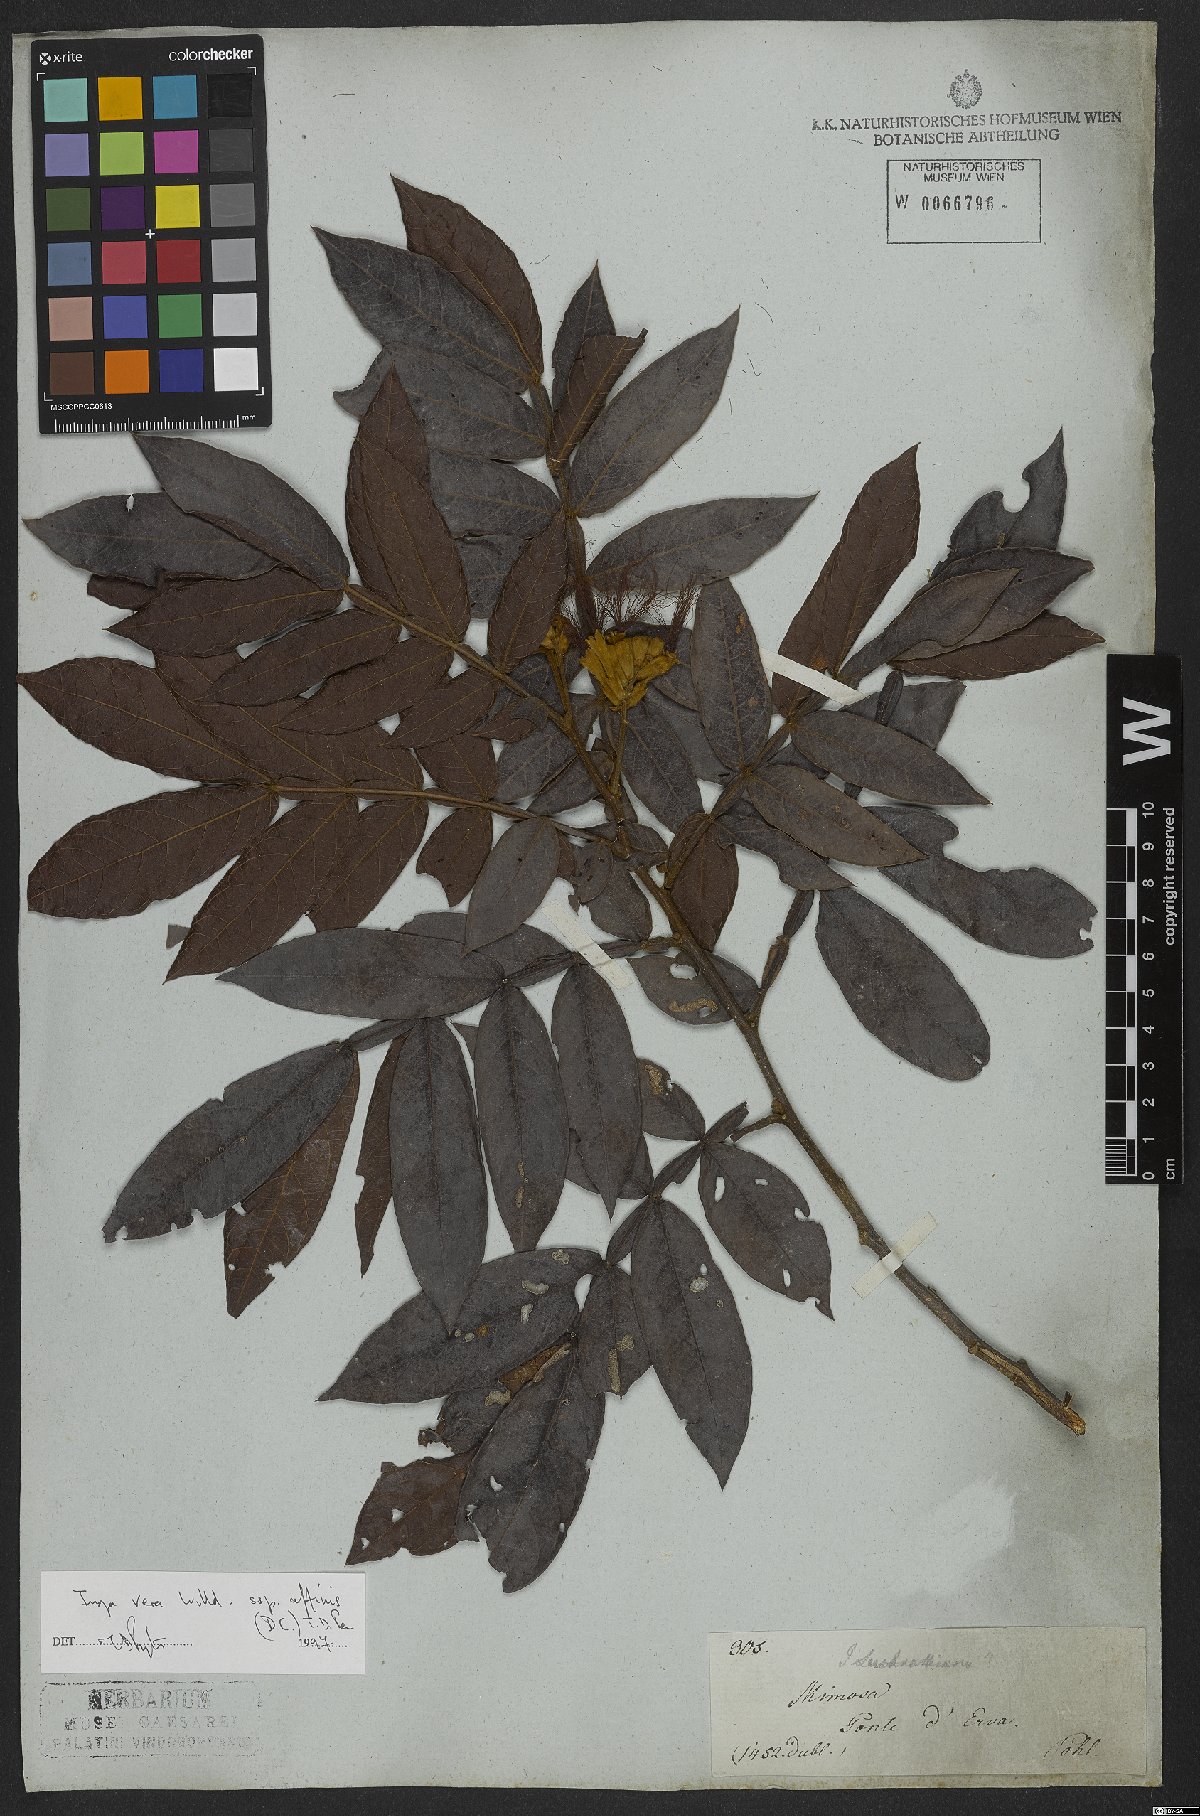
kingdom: Plantae
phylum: Tracheophyta
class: Magnoliopsida
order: Fabales
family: Fabaceae
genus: Inga
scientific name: Inga affinis
